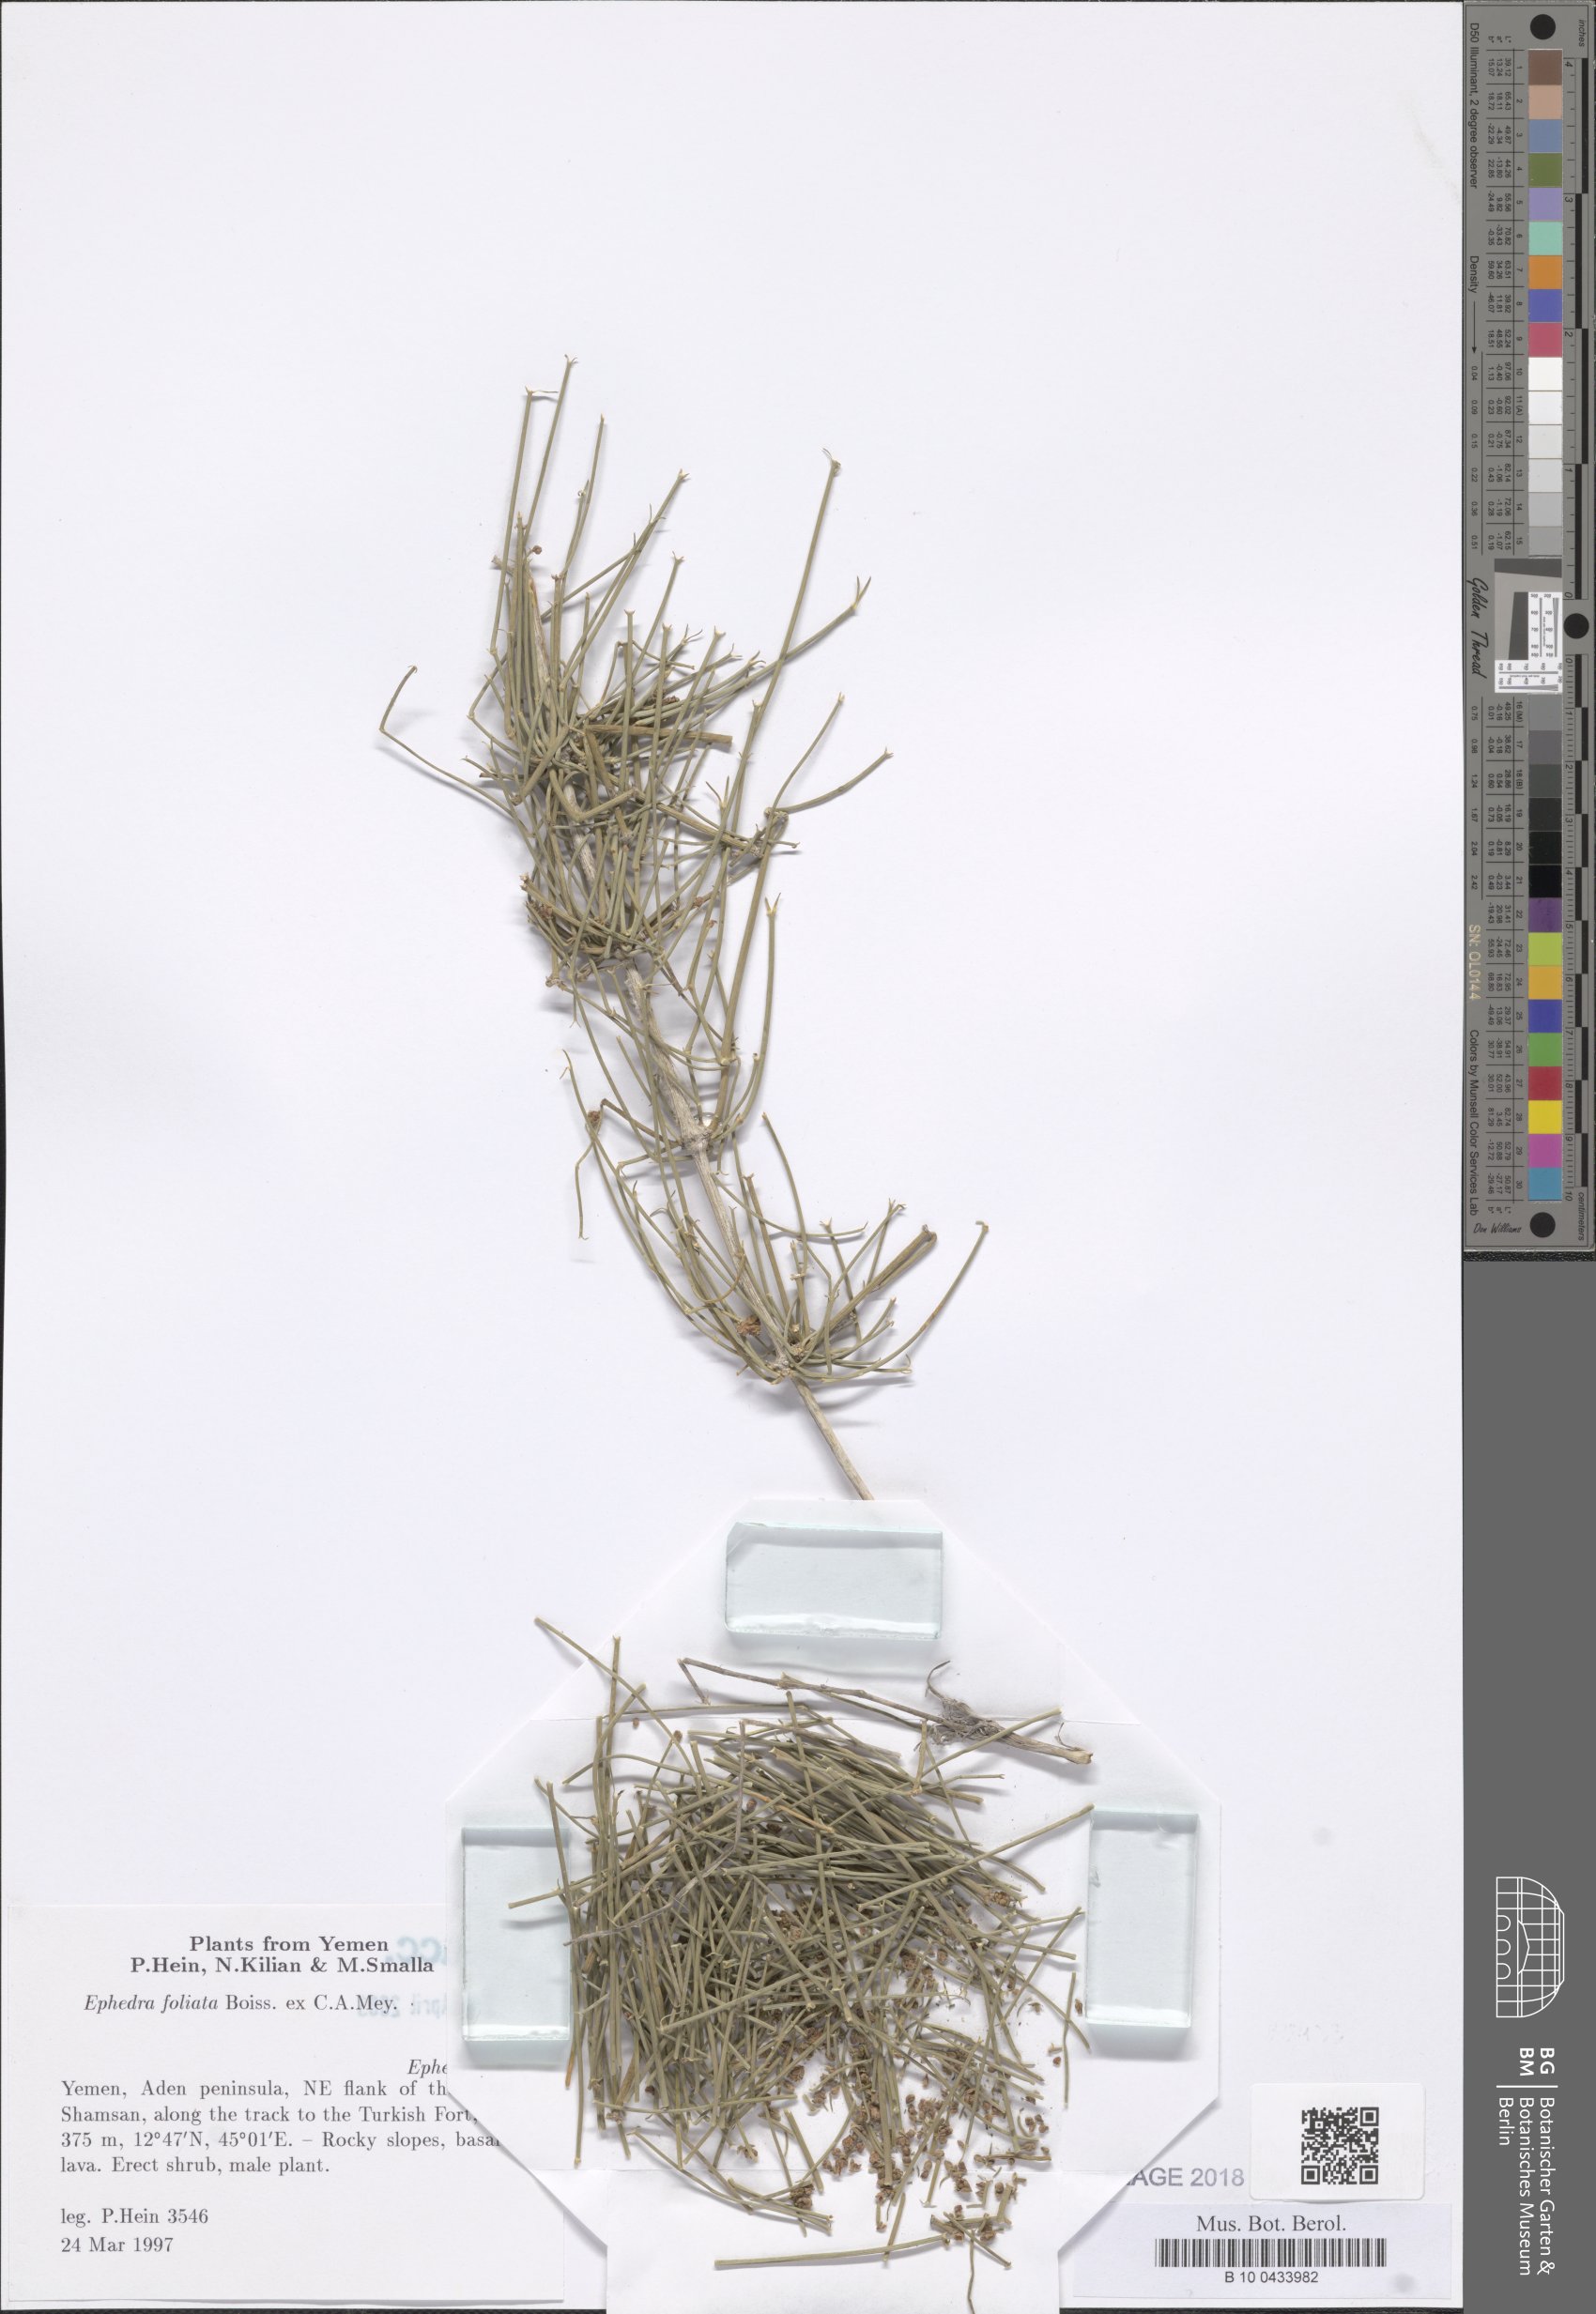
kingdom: Plantae
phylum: Tracheophyta
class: Gnetopsida
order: Ephedrales
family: Ephedraceae
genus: Ephedra
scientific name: Ephedra ciliata
